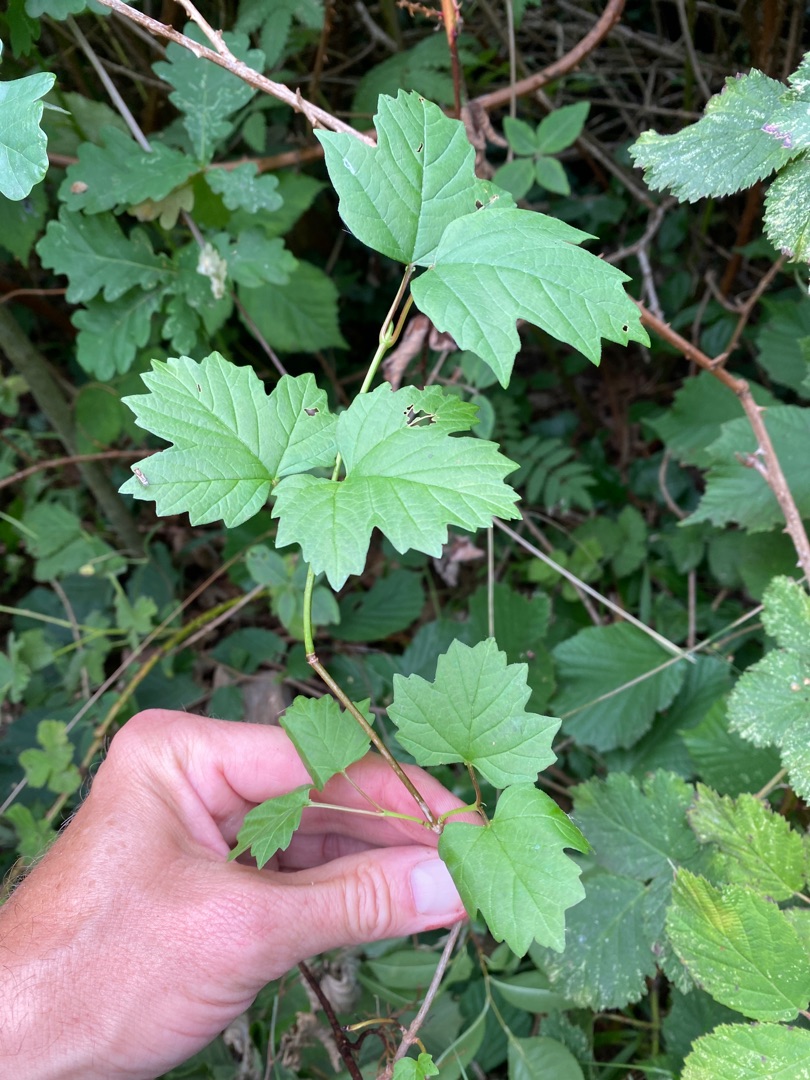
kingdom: Plantae
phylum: Tracheophyta
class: Magnoliopsida
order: Dipsacales
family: Viburnaceae
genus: Viburnum
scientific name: Viburnum opulus
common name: Kvalkved
